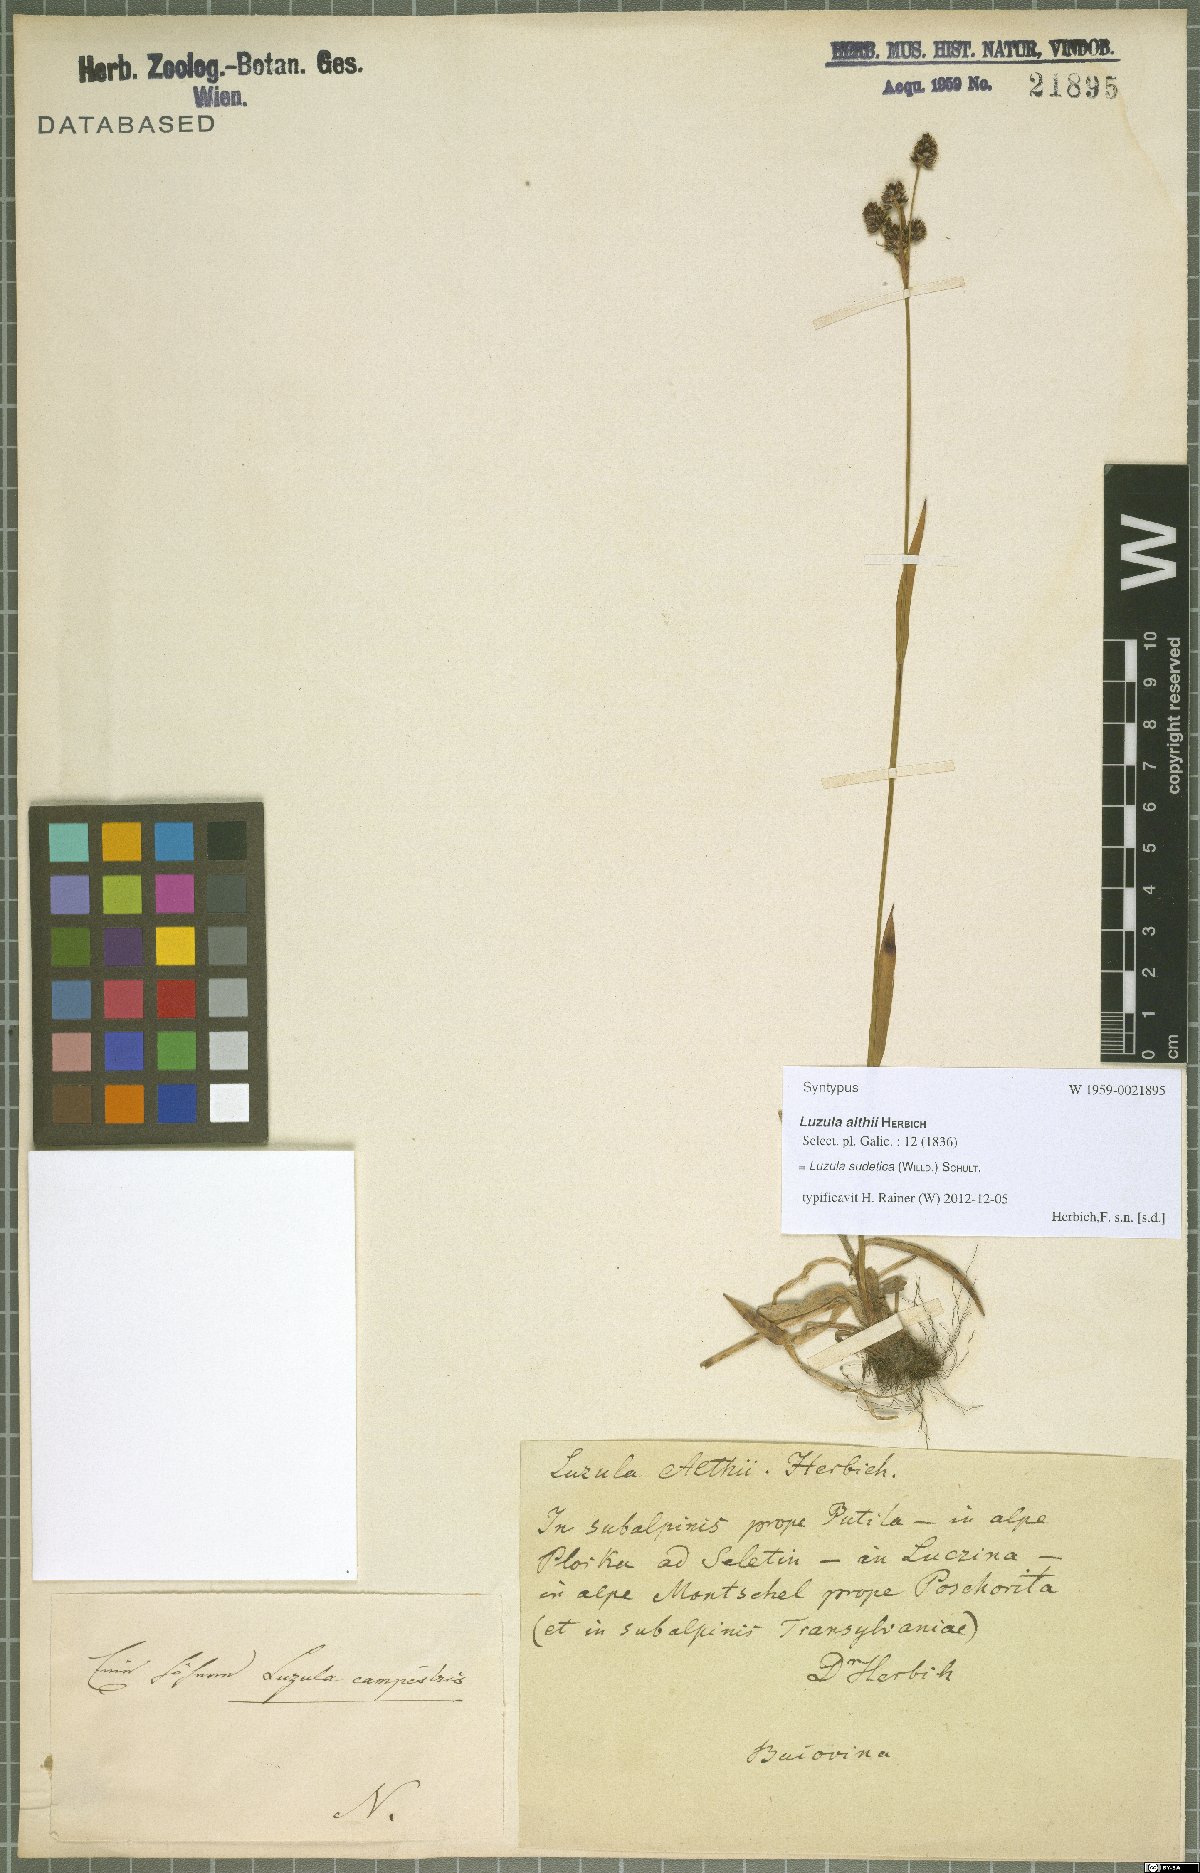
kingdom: Plantae
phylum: Tracheophyta
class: Liliopsida
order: Poales
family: Juncaceae
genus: Luzula
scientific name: Luzula sudetica
